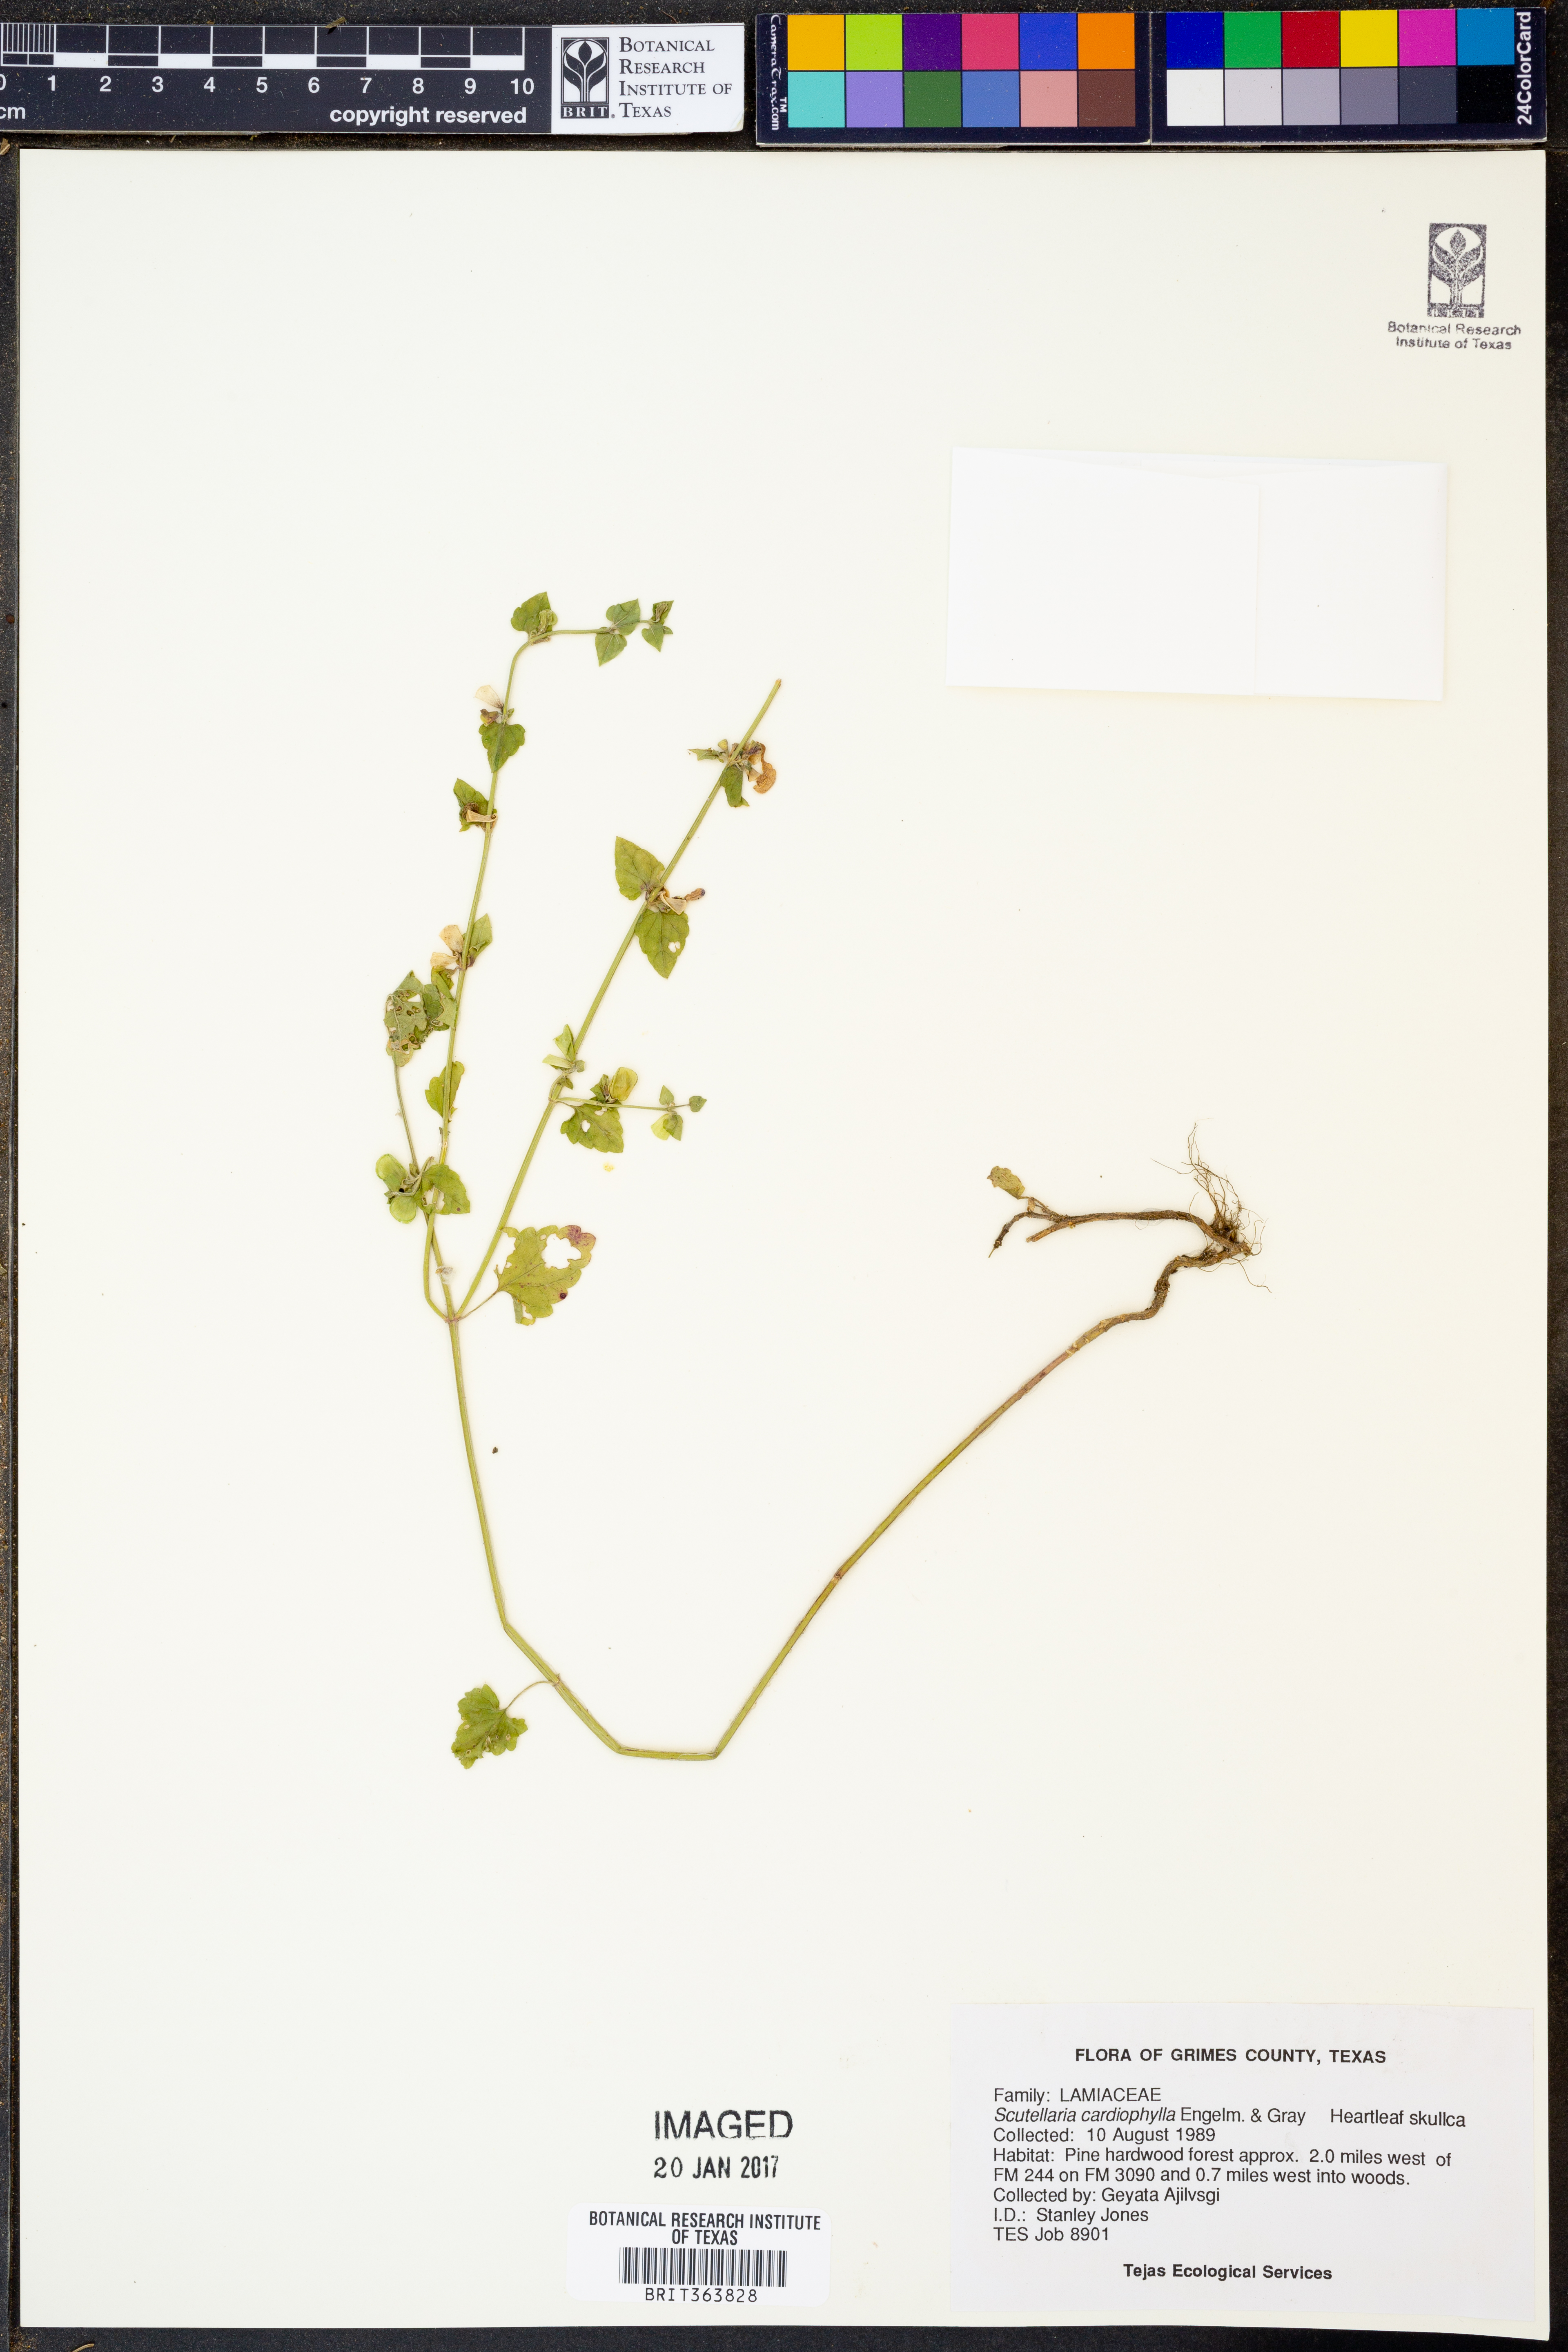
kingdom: Plantae
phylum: Tracheophyta
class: Magnoliopsida
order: Lamiales
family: Lamiaceae
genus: Scutellaria
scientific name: Scutellaria cardiophylla
